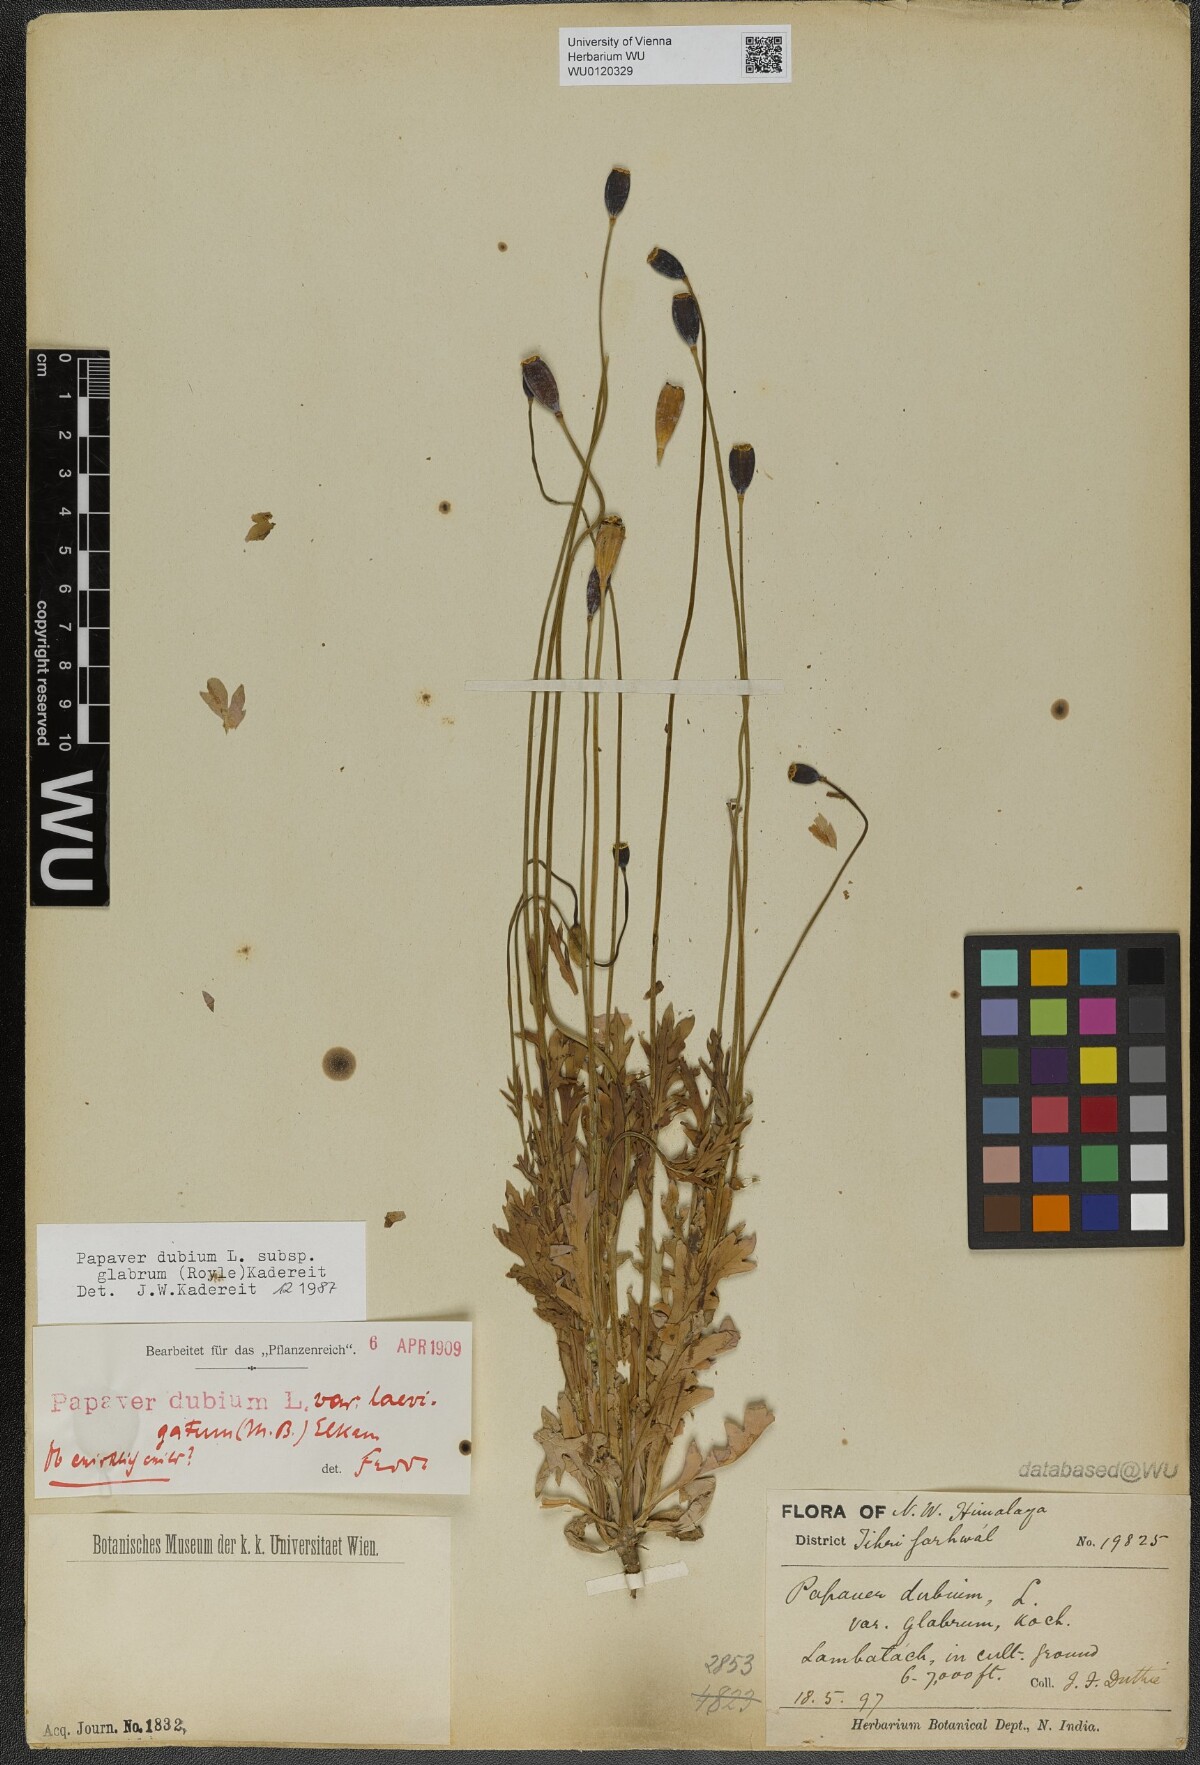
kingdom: Plantae
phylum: Tracheophyta
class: Magnoliopsida
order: Ranunculales
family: Papaveraceae
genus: Papaver
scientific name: Papaver glabrum
